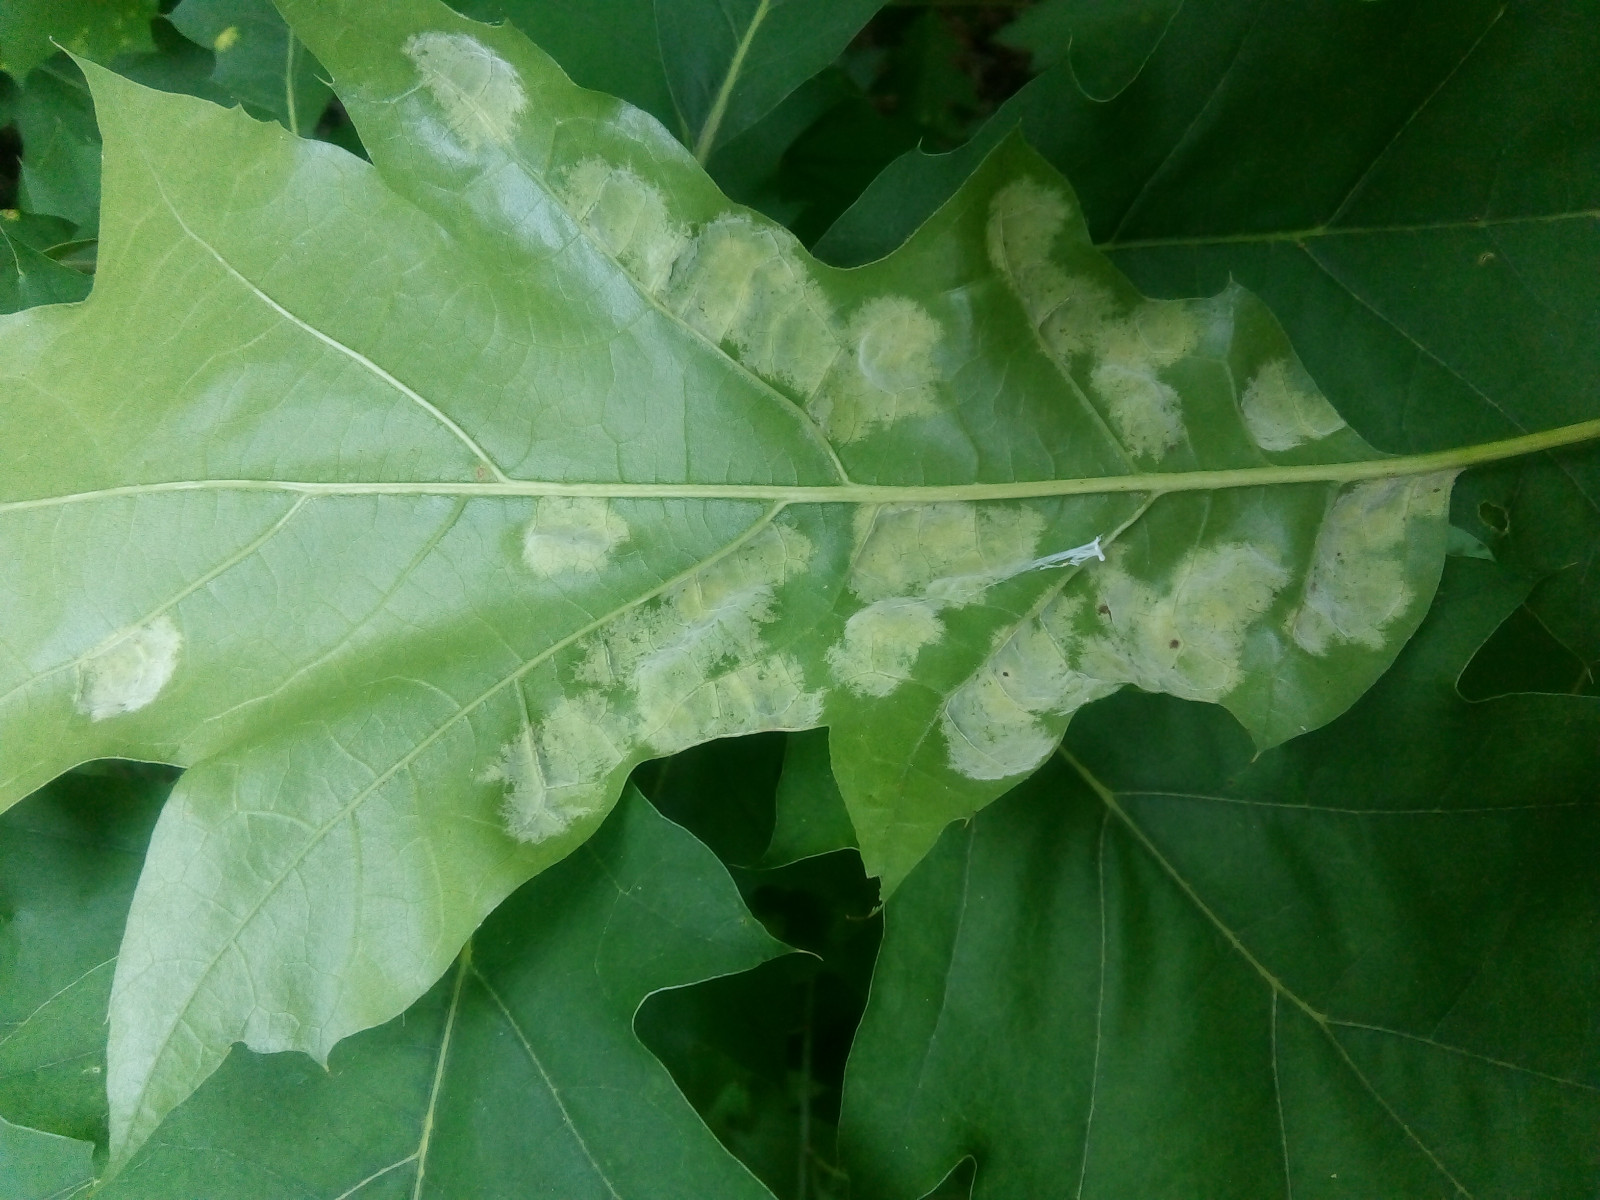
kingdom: Fungi
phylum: Ascomycota
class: Taphrinomycetes
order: Taphrinales
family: Taphrinaceae
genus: Taphrina
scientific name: Taphrina caerulescens
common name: Oak leaf blister
